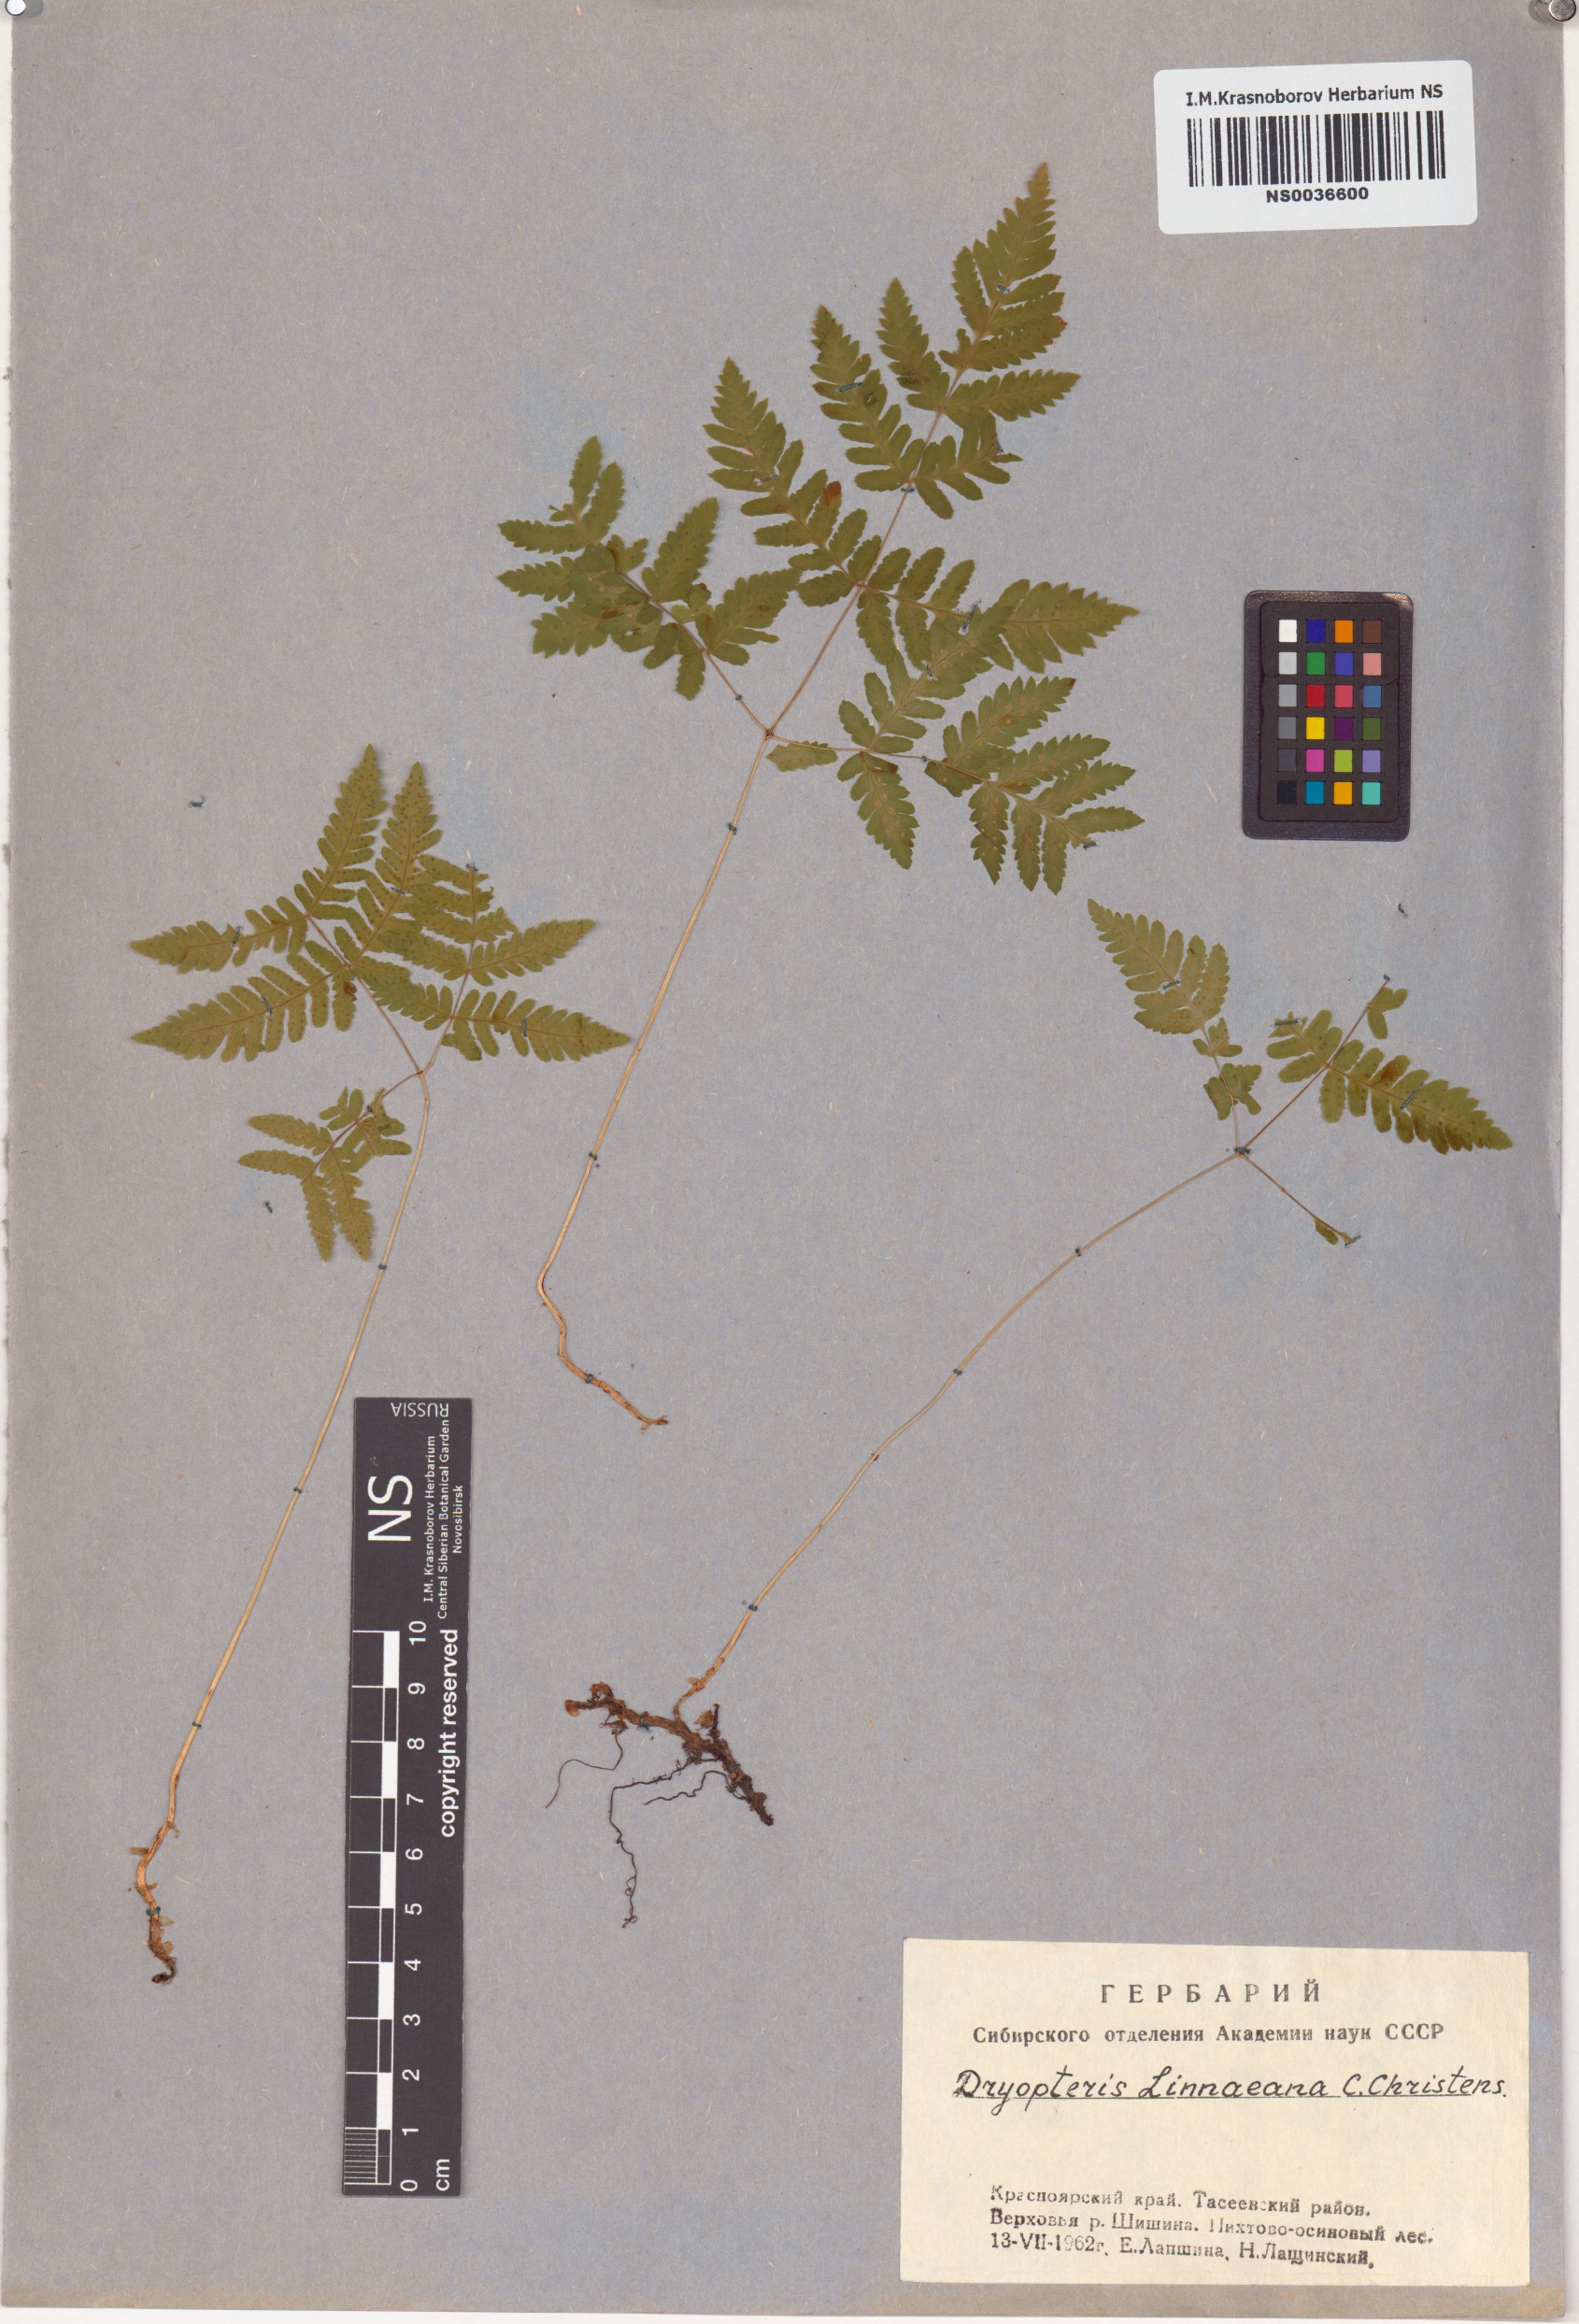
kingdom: Plantae
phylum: Tracheophyta
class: Polypodiopsida
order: Polypodiales
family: Cystopteridaceae
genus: Gymnocarpium
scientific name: Gymnocarpium dryopteris
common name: Oak fern
